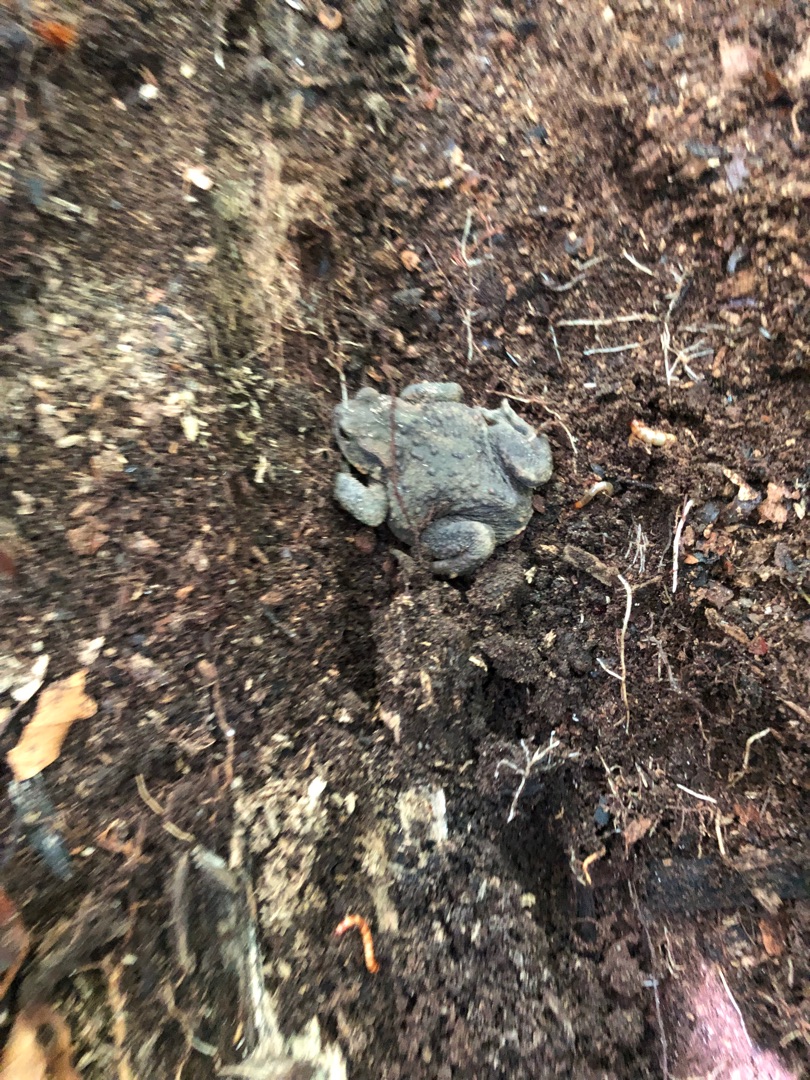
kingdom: Animalia
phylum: Chordata
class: Amphibia
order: Anura
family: Bufonidae
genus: Bufo
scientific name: Bufo bufo
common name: Skrubtudse
